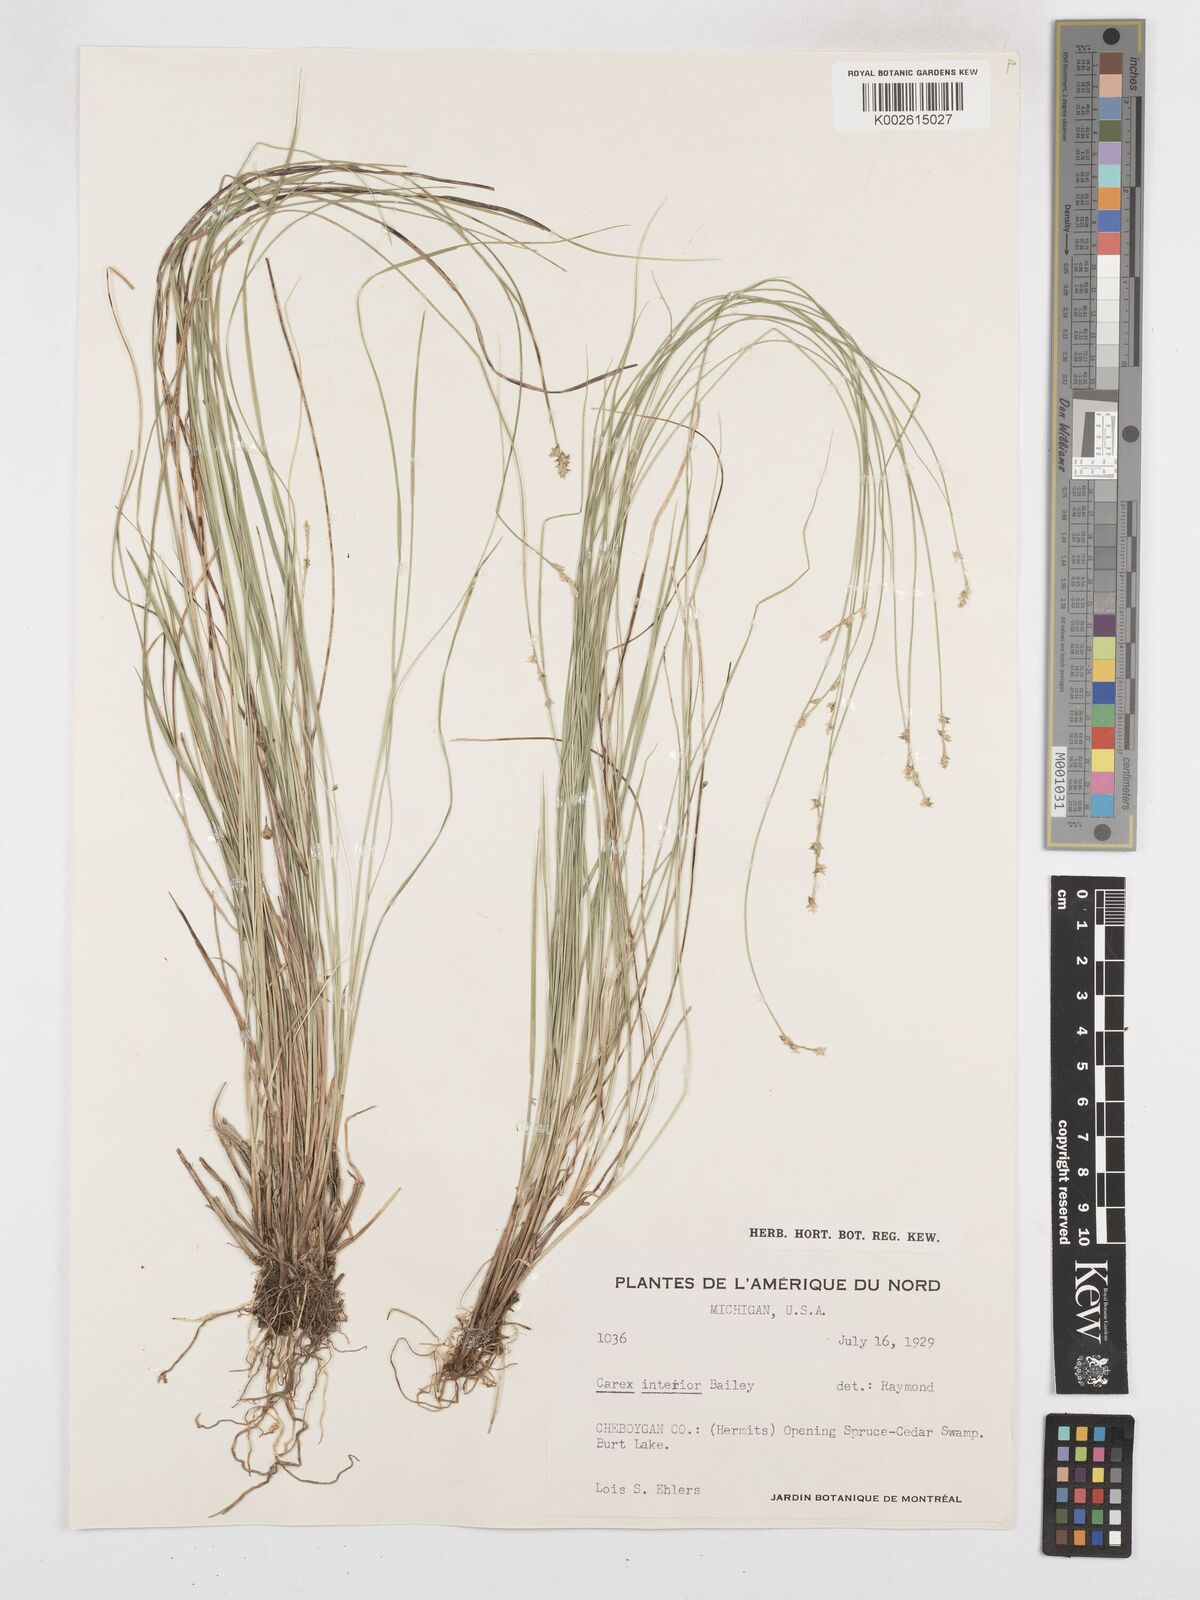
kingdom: Plantae
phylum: Tracheophyta
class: Liliopsida
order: Poales
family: Cyperaceae
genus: Carex
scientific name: Carex interior
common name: Inland sedge
